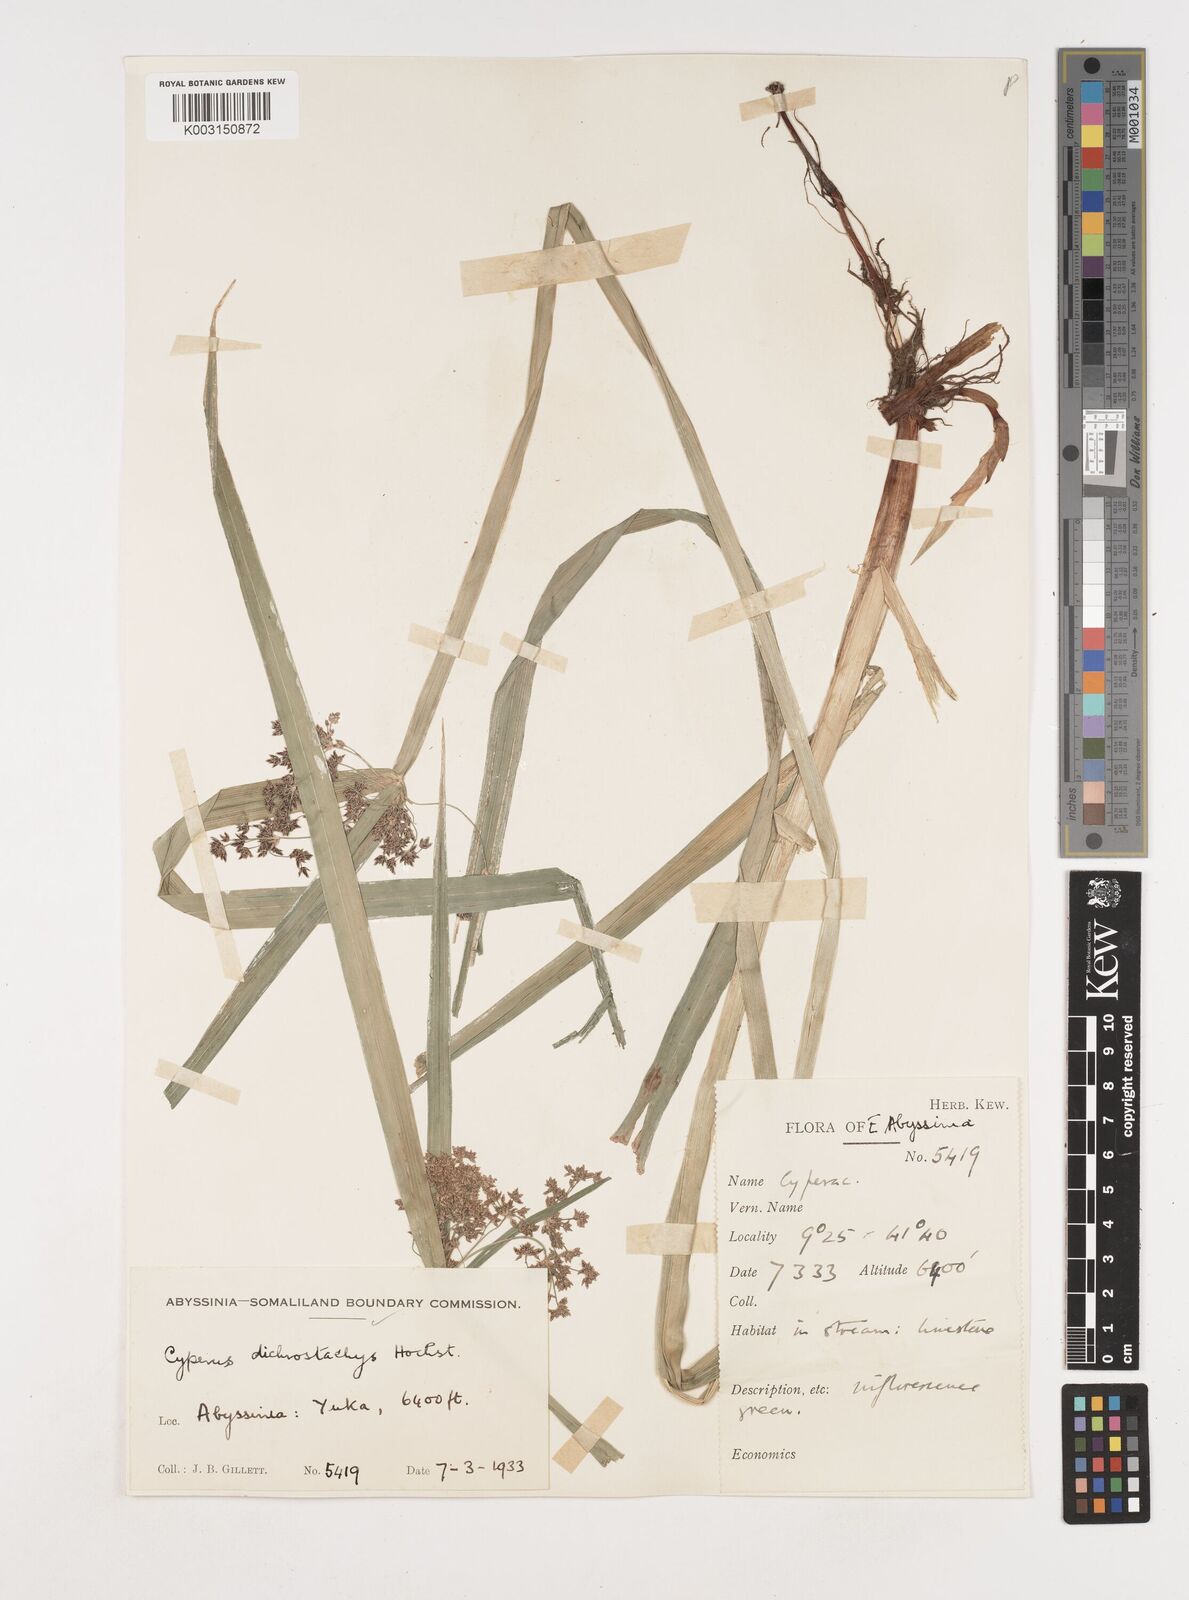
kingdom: Plantae
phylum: Tracheophyta
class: Liliopsida
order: Poales
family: Cyperaceae
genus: Cyperus
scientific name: Cyperus dichrostachyus
